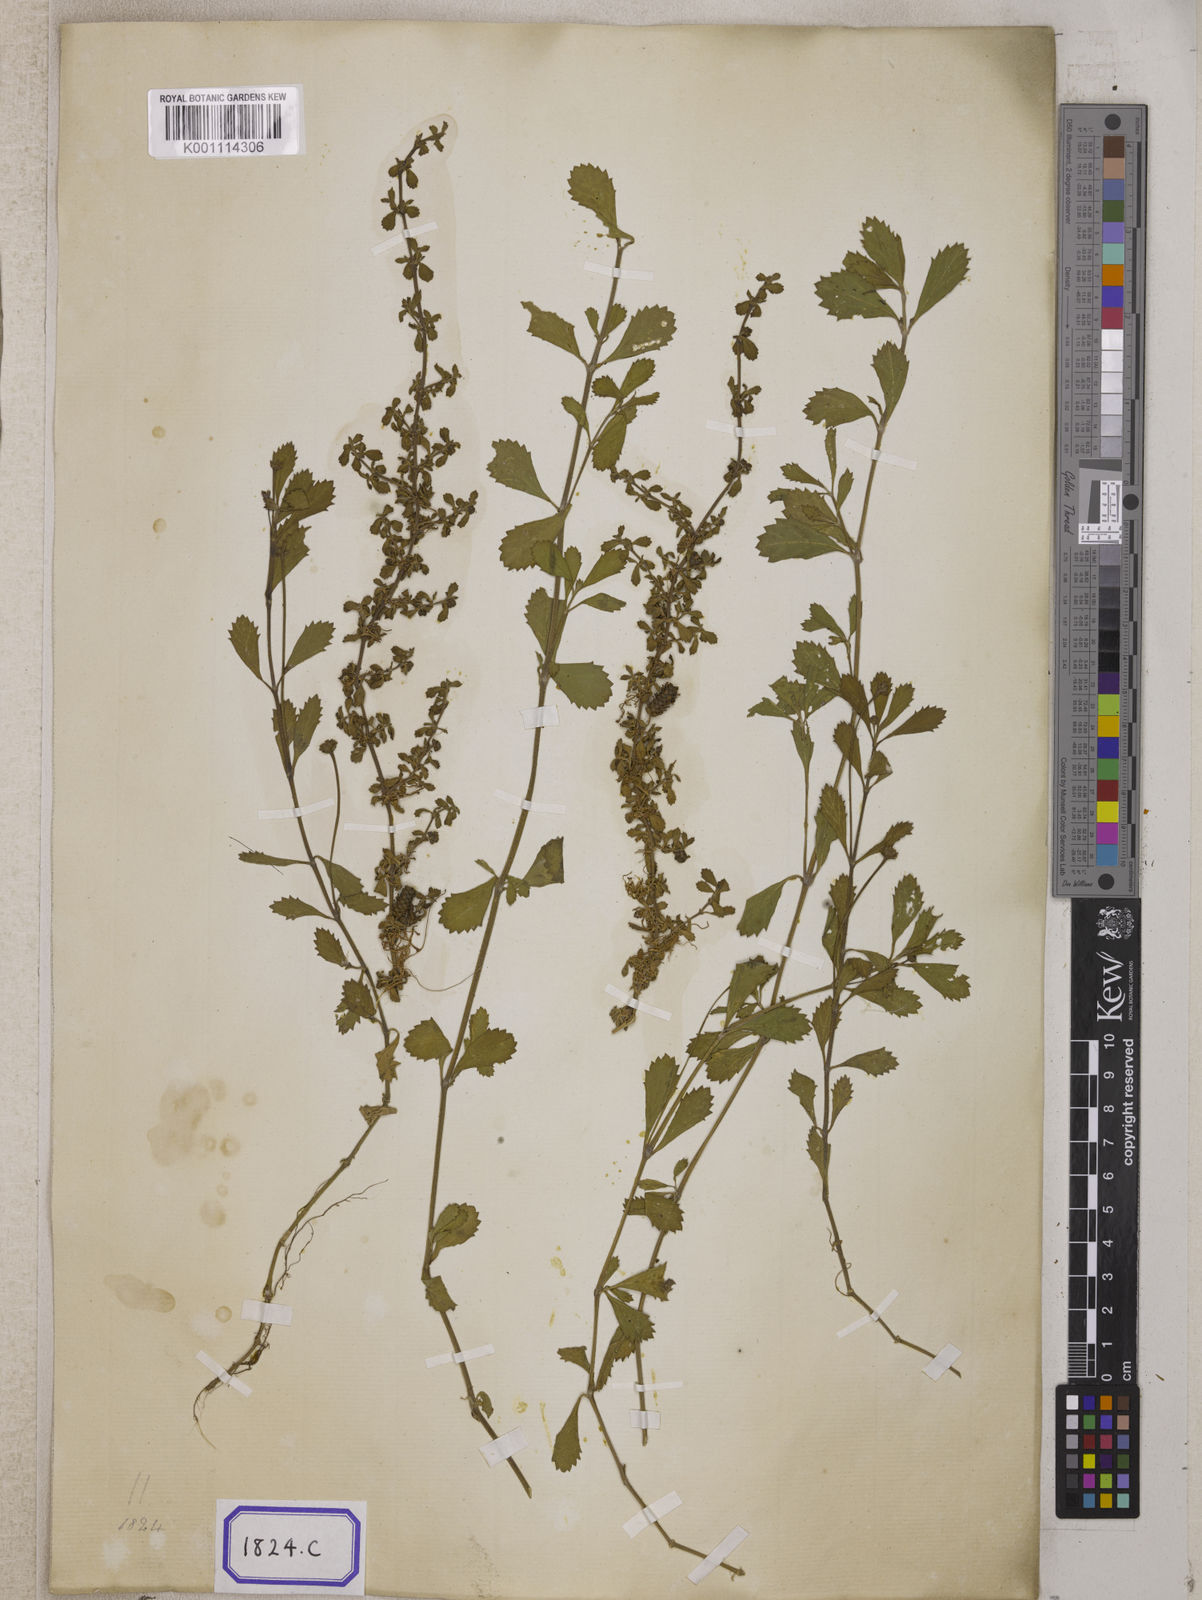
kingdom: Plantae
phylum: Tracheophyta
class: Magnoliopsida
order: Lamiales
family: Verbenaceae
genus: Phyla
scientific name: Phyla nodiflora
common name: Frogfruit
